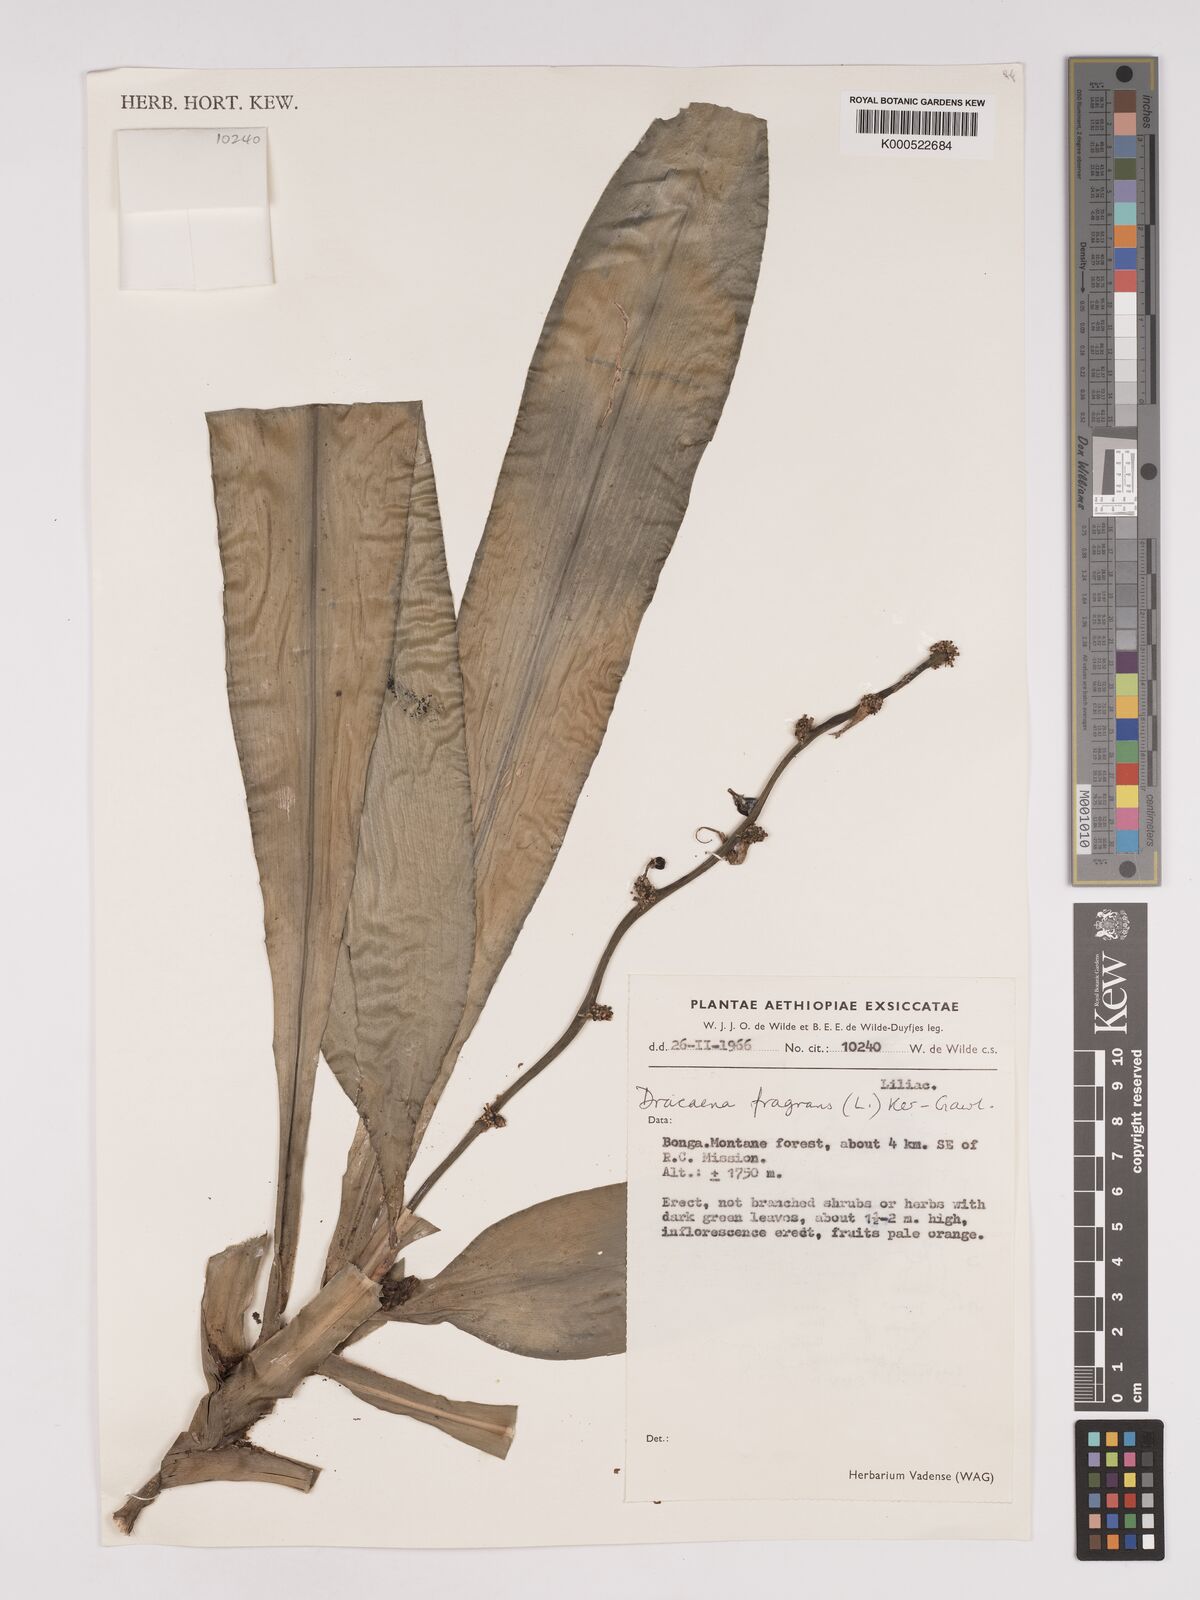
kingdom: Plantae
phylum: Tracheophyta
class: Liliopsida
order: Asparagales
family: Asparagaceae
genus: Dracaena
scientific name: Dracaena fragrans
